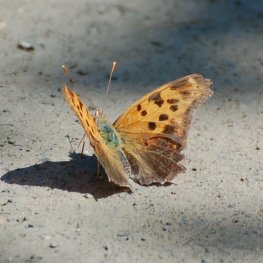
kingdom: Animalia
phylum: Arthropoda
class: Insecta
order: Lepidoptera
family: Nymphalidae
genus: Polygonia
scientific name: Polygonia interrogationis
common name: Question Mark
